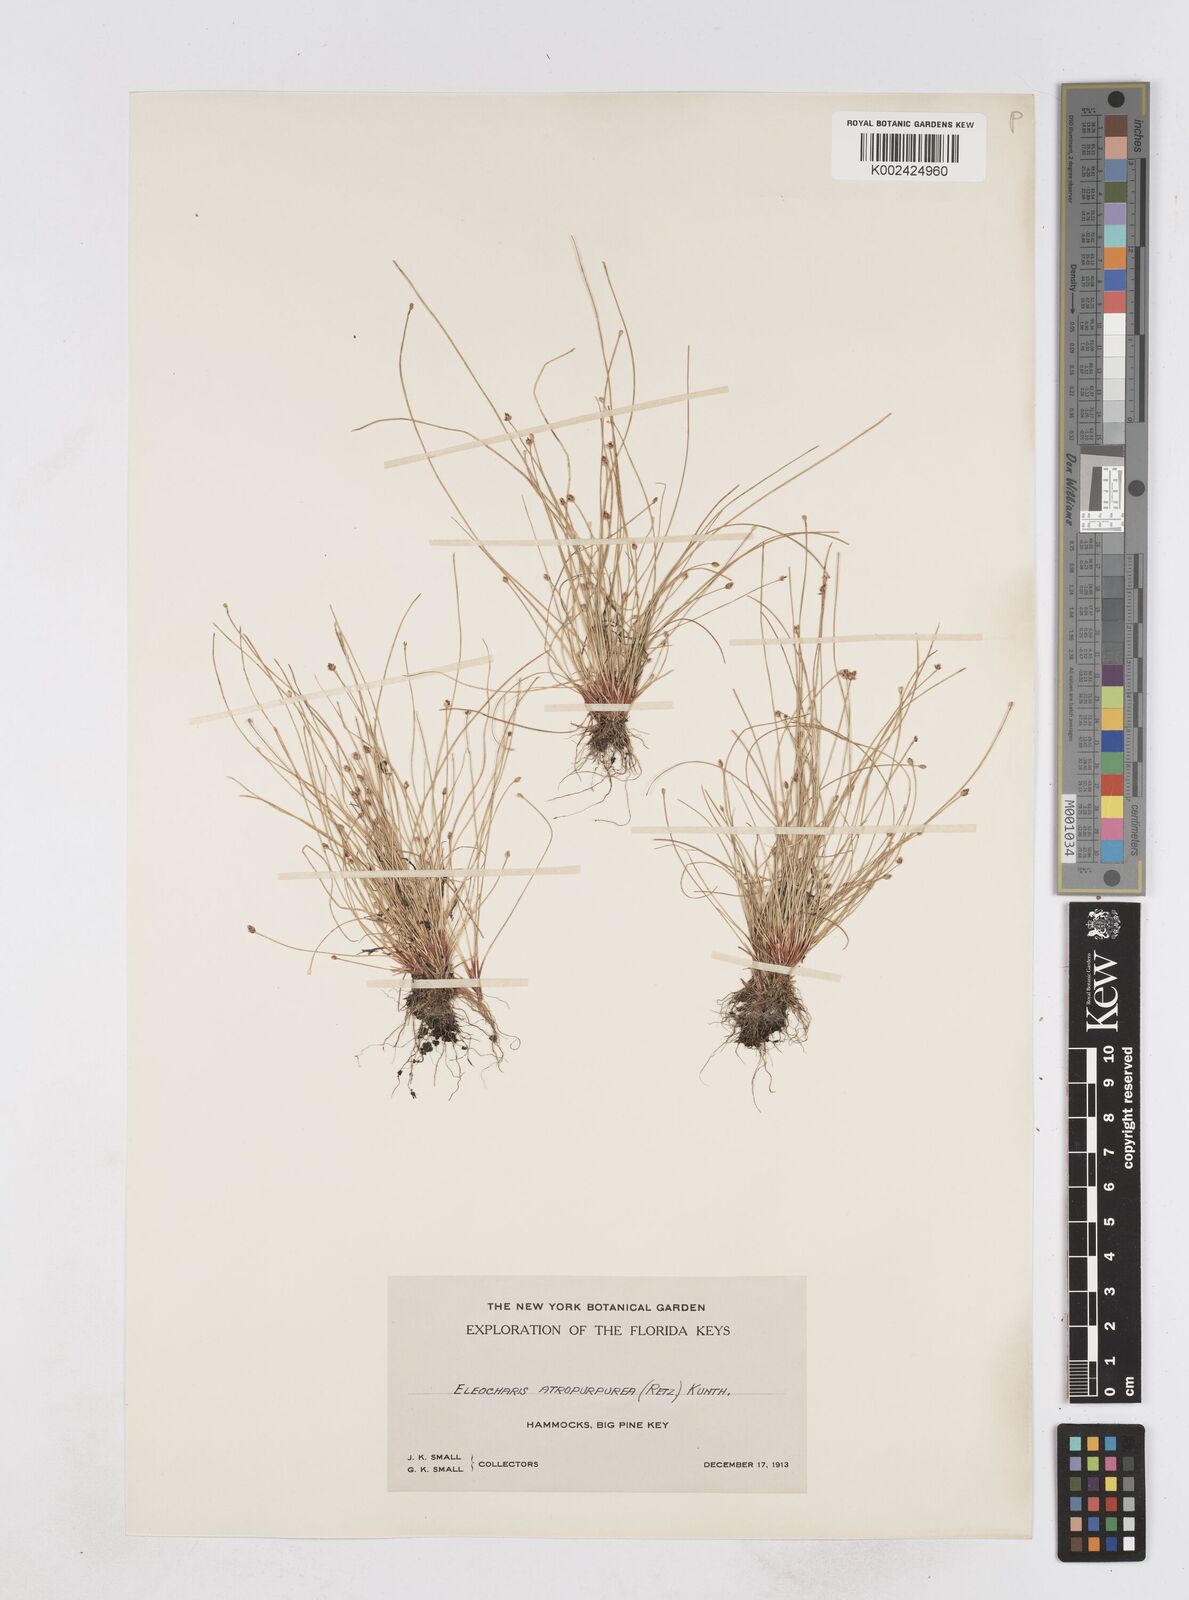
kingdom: Plantae
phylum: Tracheophyta
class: Liliopsida
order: Poales
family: Cyperaceae
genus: Eleocharis
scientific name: Eleocharis atropurpurea
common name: Purple spikerush
